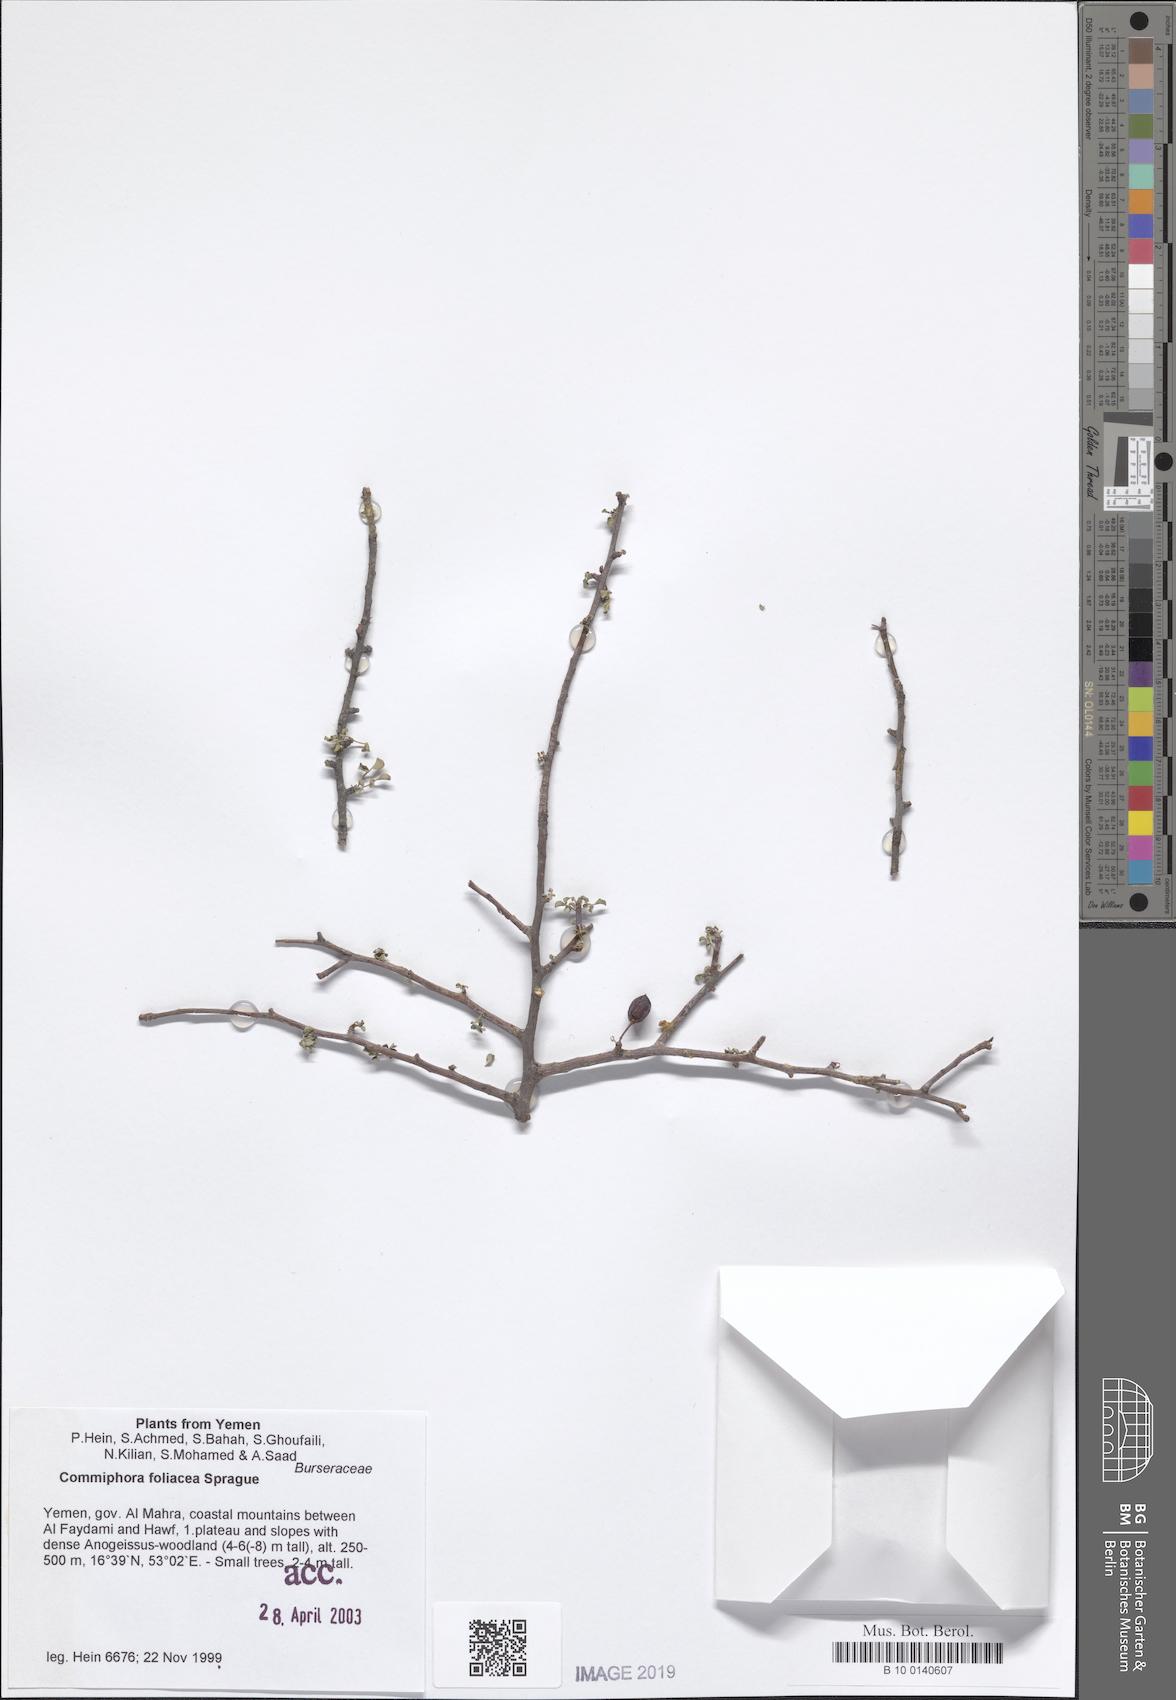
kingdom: Plantae
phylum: Tracheophyta
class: Magnoliopsida
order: Sapindales
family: Burseraceae
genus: Commiphora
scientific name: Commiphora foliacea
